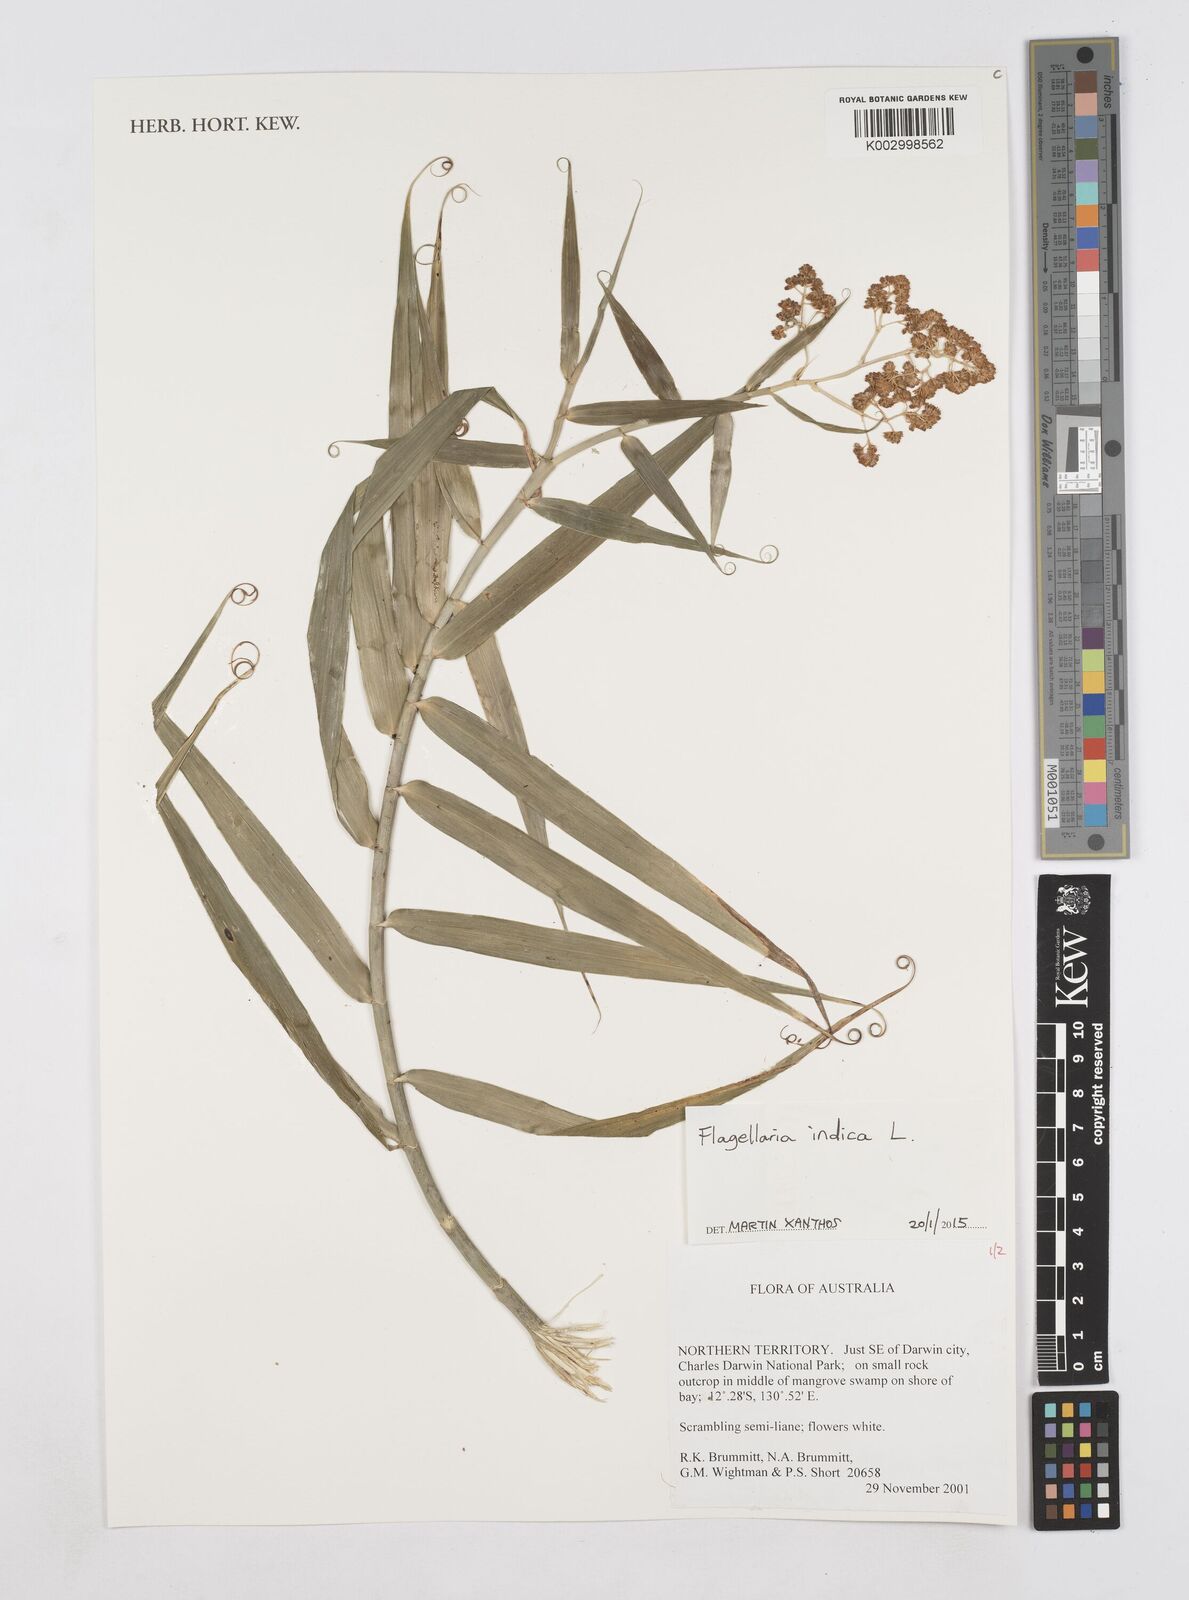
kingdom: Plantae
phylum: Tracheophyta
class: Liliopsida
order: Poales
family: Flagellariaceae
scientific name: Flagellariaceae
